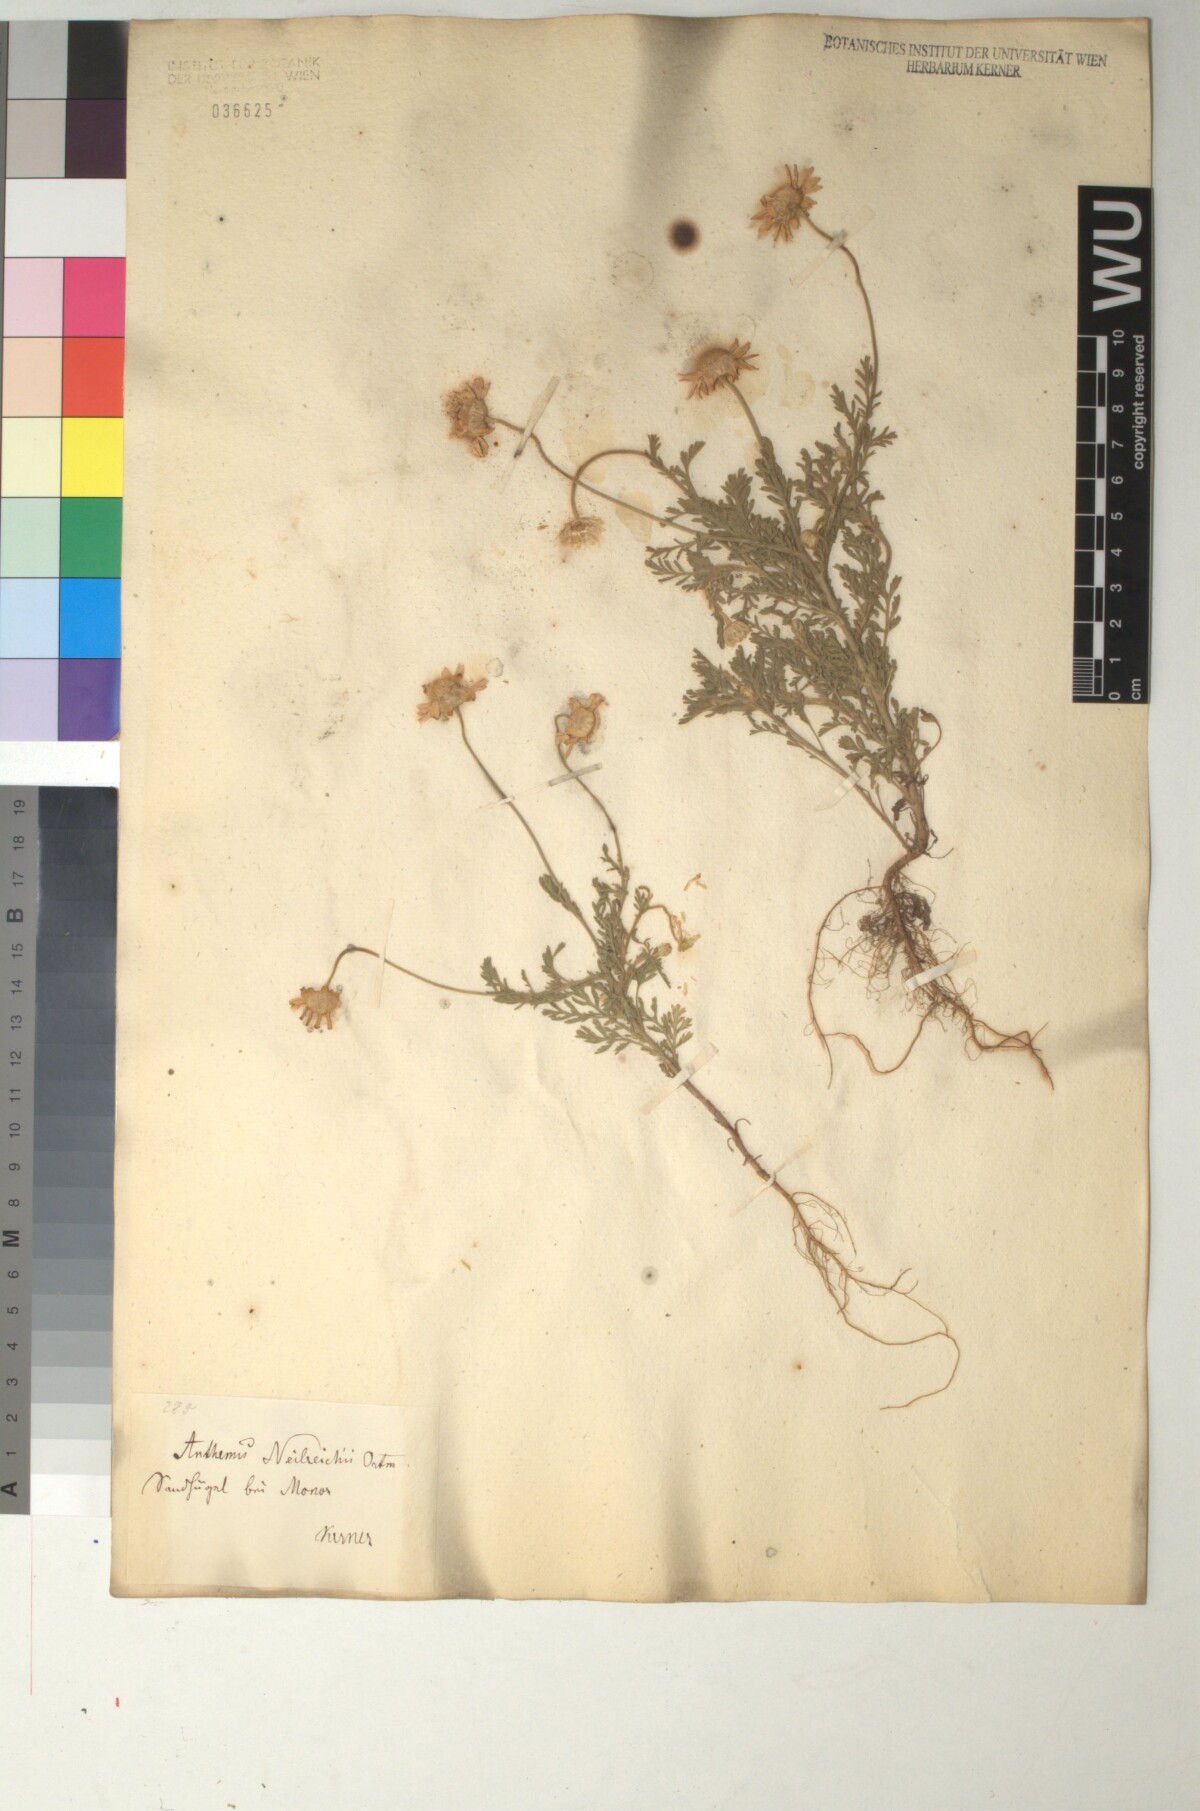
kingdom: Plantae
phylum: Tracheophyta
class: Magnoliopsida
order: Asterales
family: Asteraceae
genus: Anthemis
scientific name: Anthemis ruthenica
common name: Eastern chamomile
